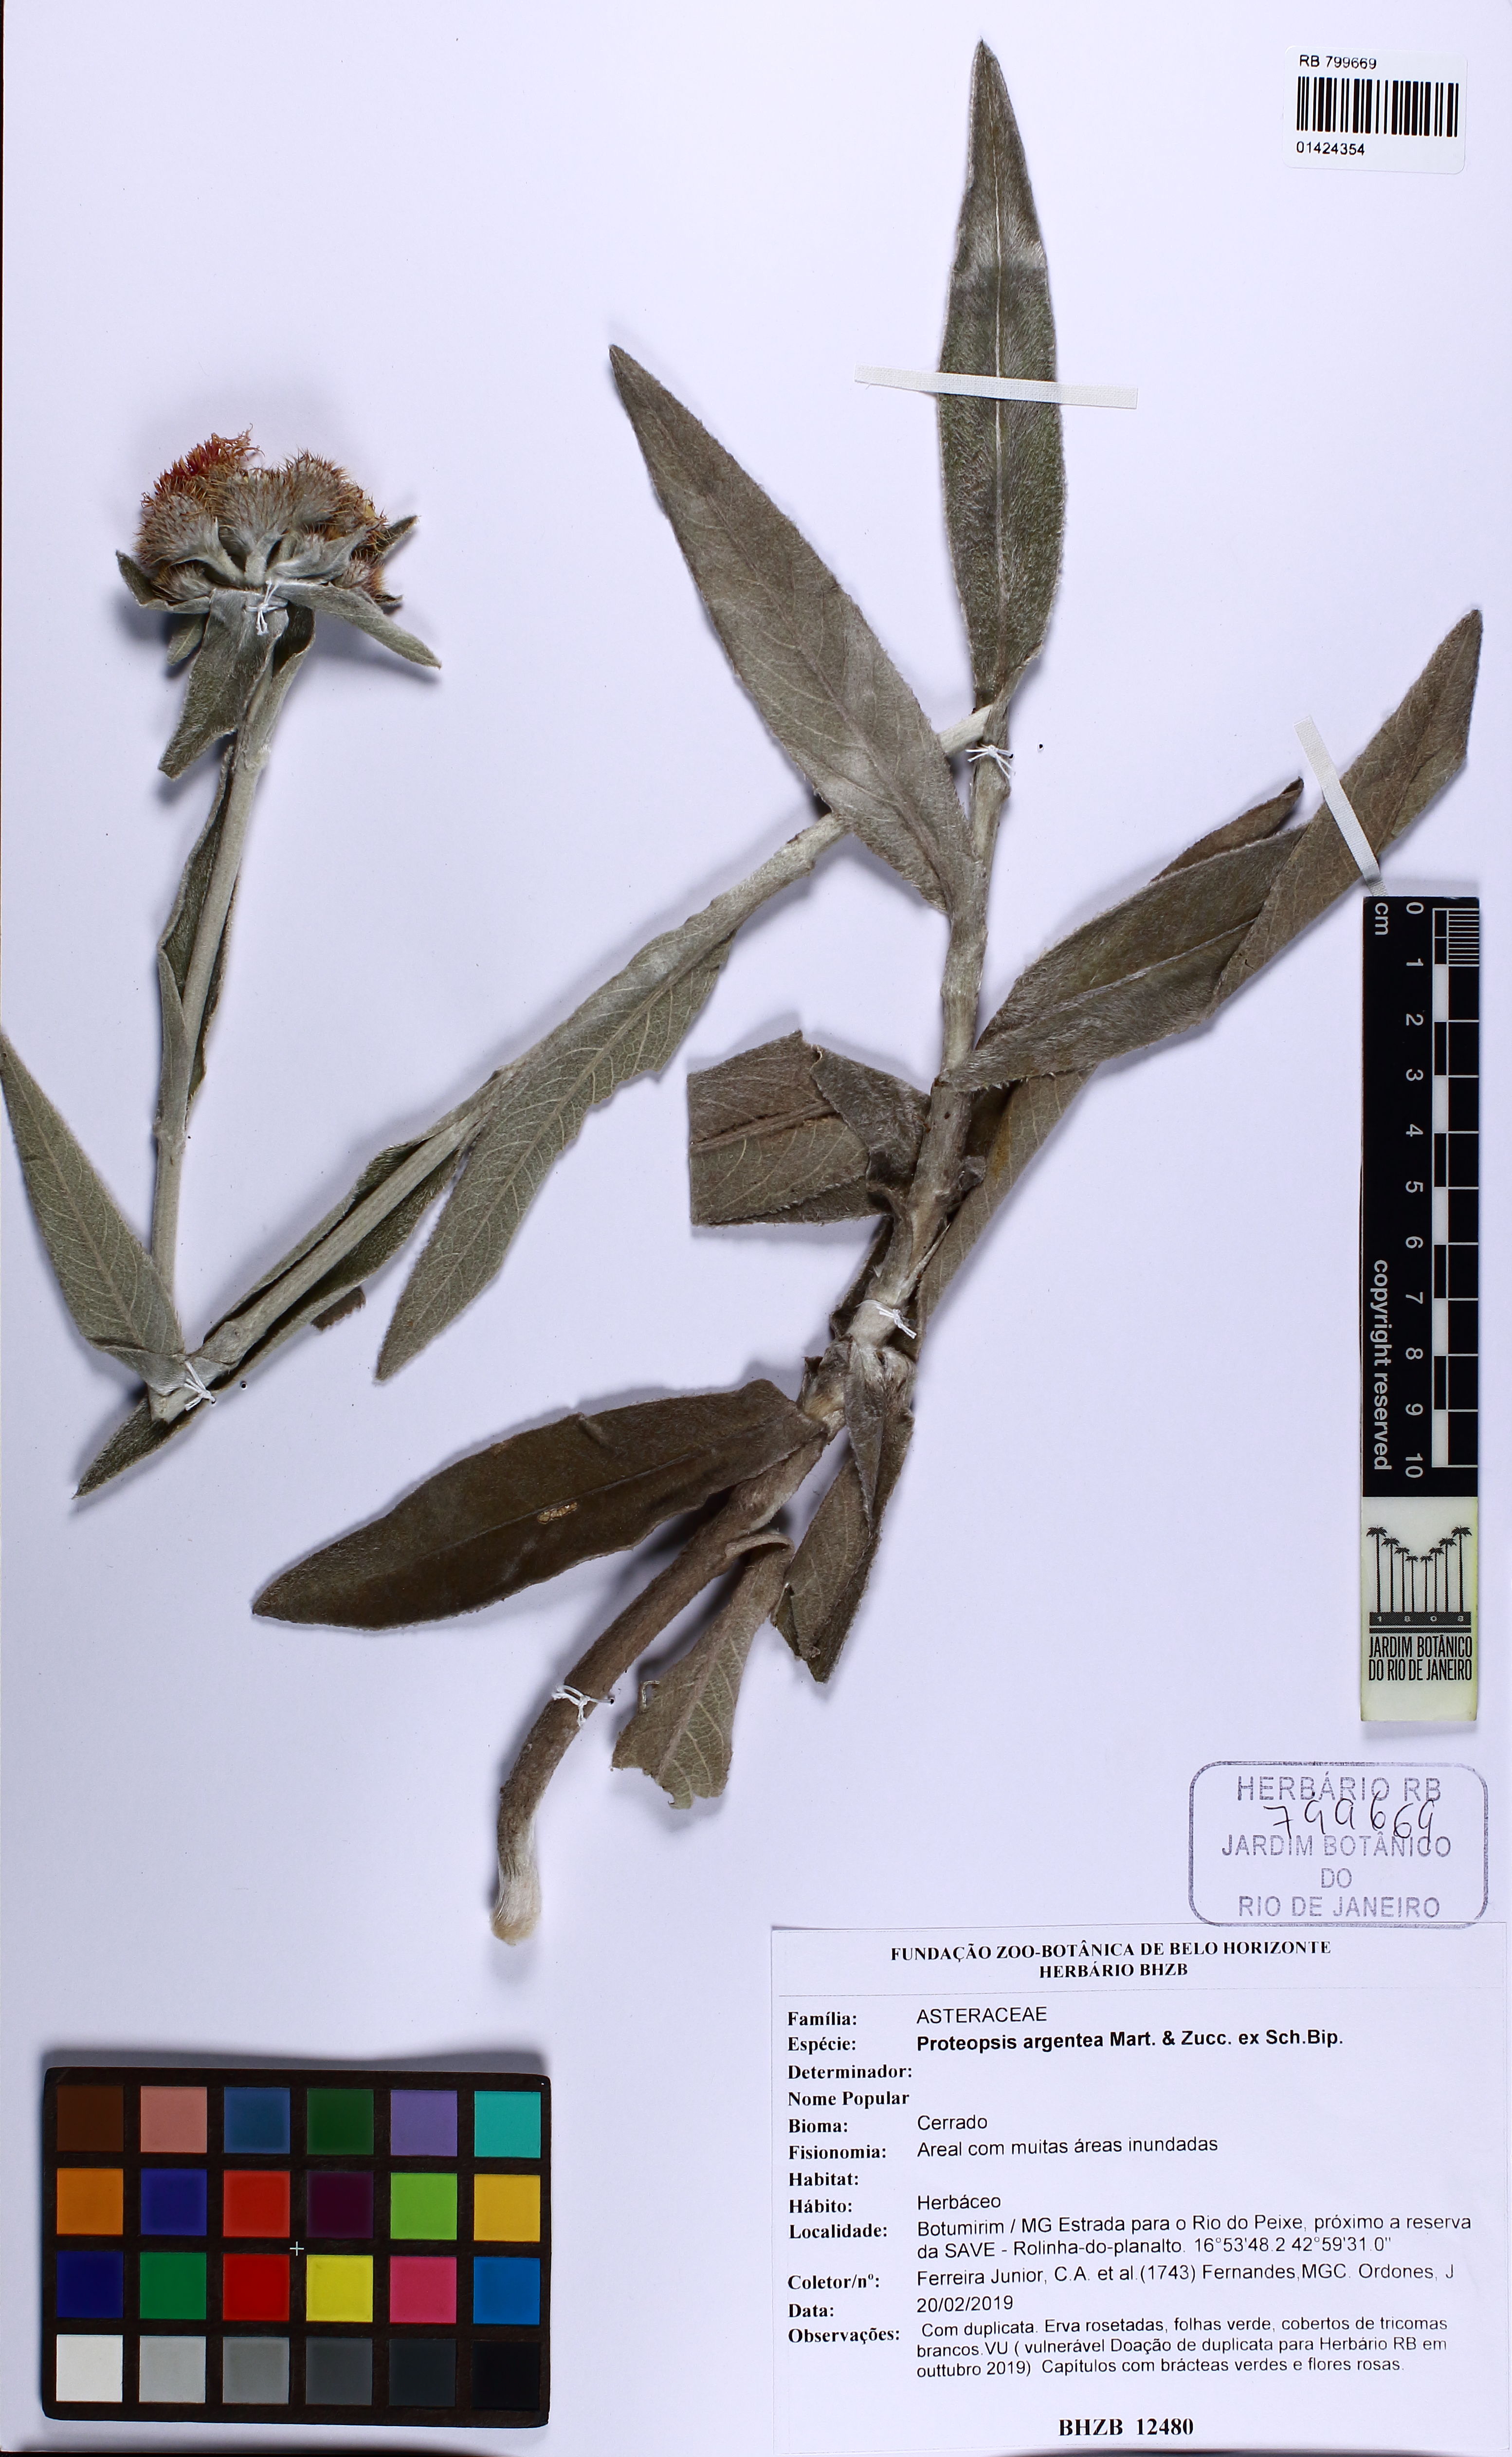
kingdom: Plantae
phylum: Tracheophyta
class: Magnoliopsida
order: Asterales
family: Asteraceae
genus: Proteopsis
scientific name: Proteopsis argentea
